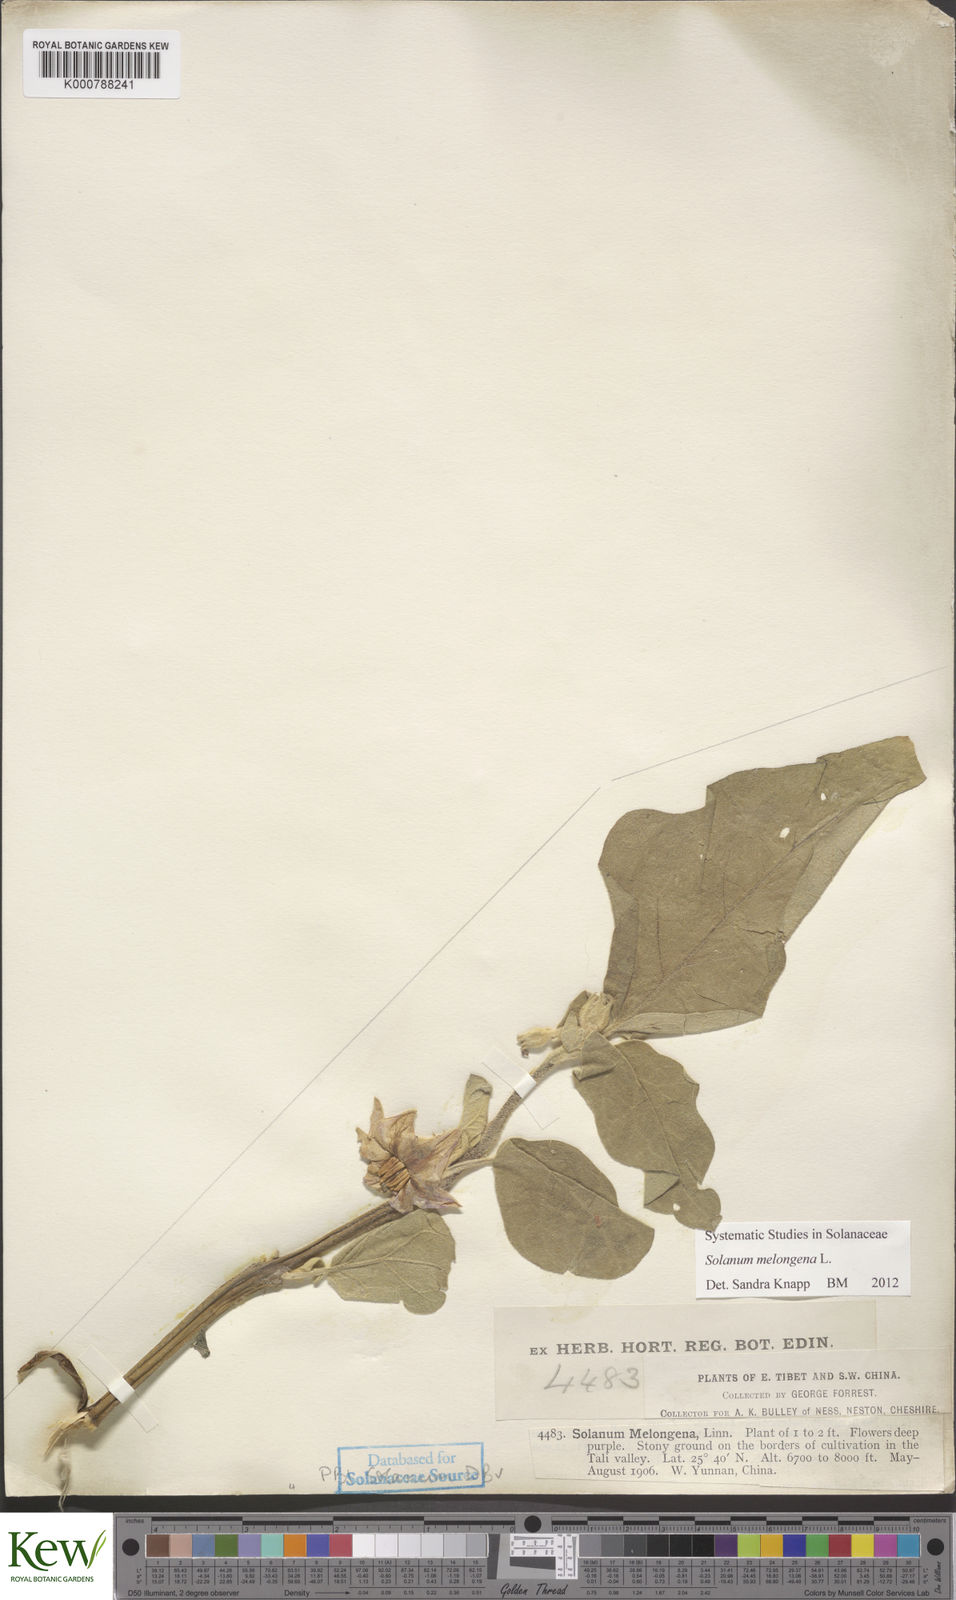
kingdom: Plantae
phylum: Tracheophyta
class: Magnoliopsida
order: Solanales
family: Solanaceae
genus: Solanum
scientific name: Solanum melongena
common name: Eggplant
